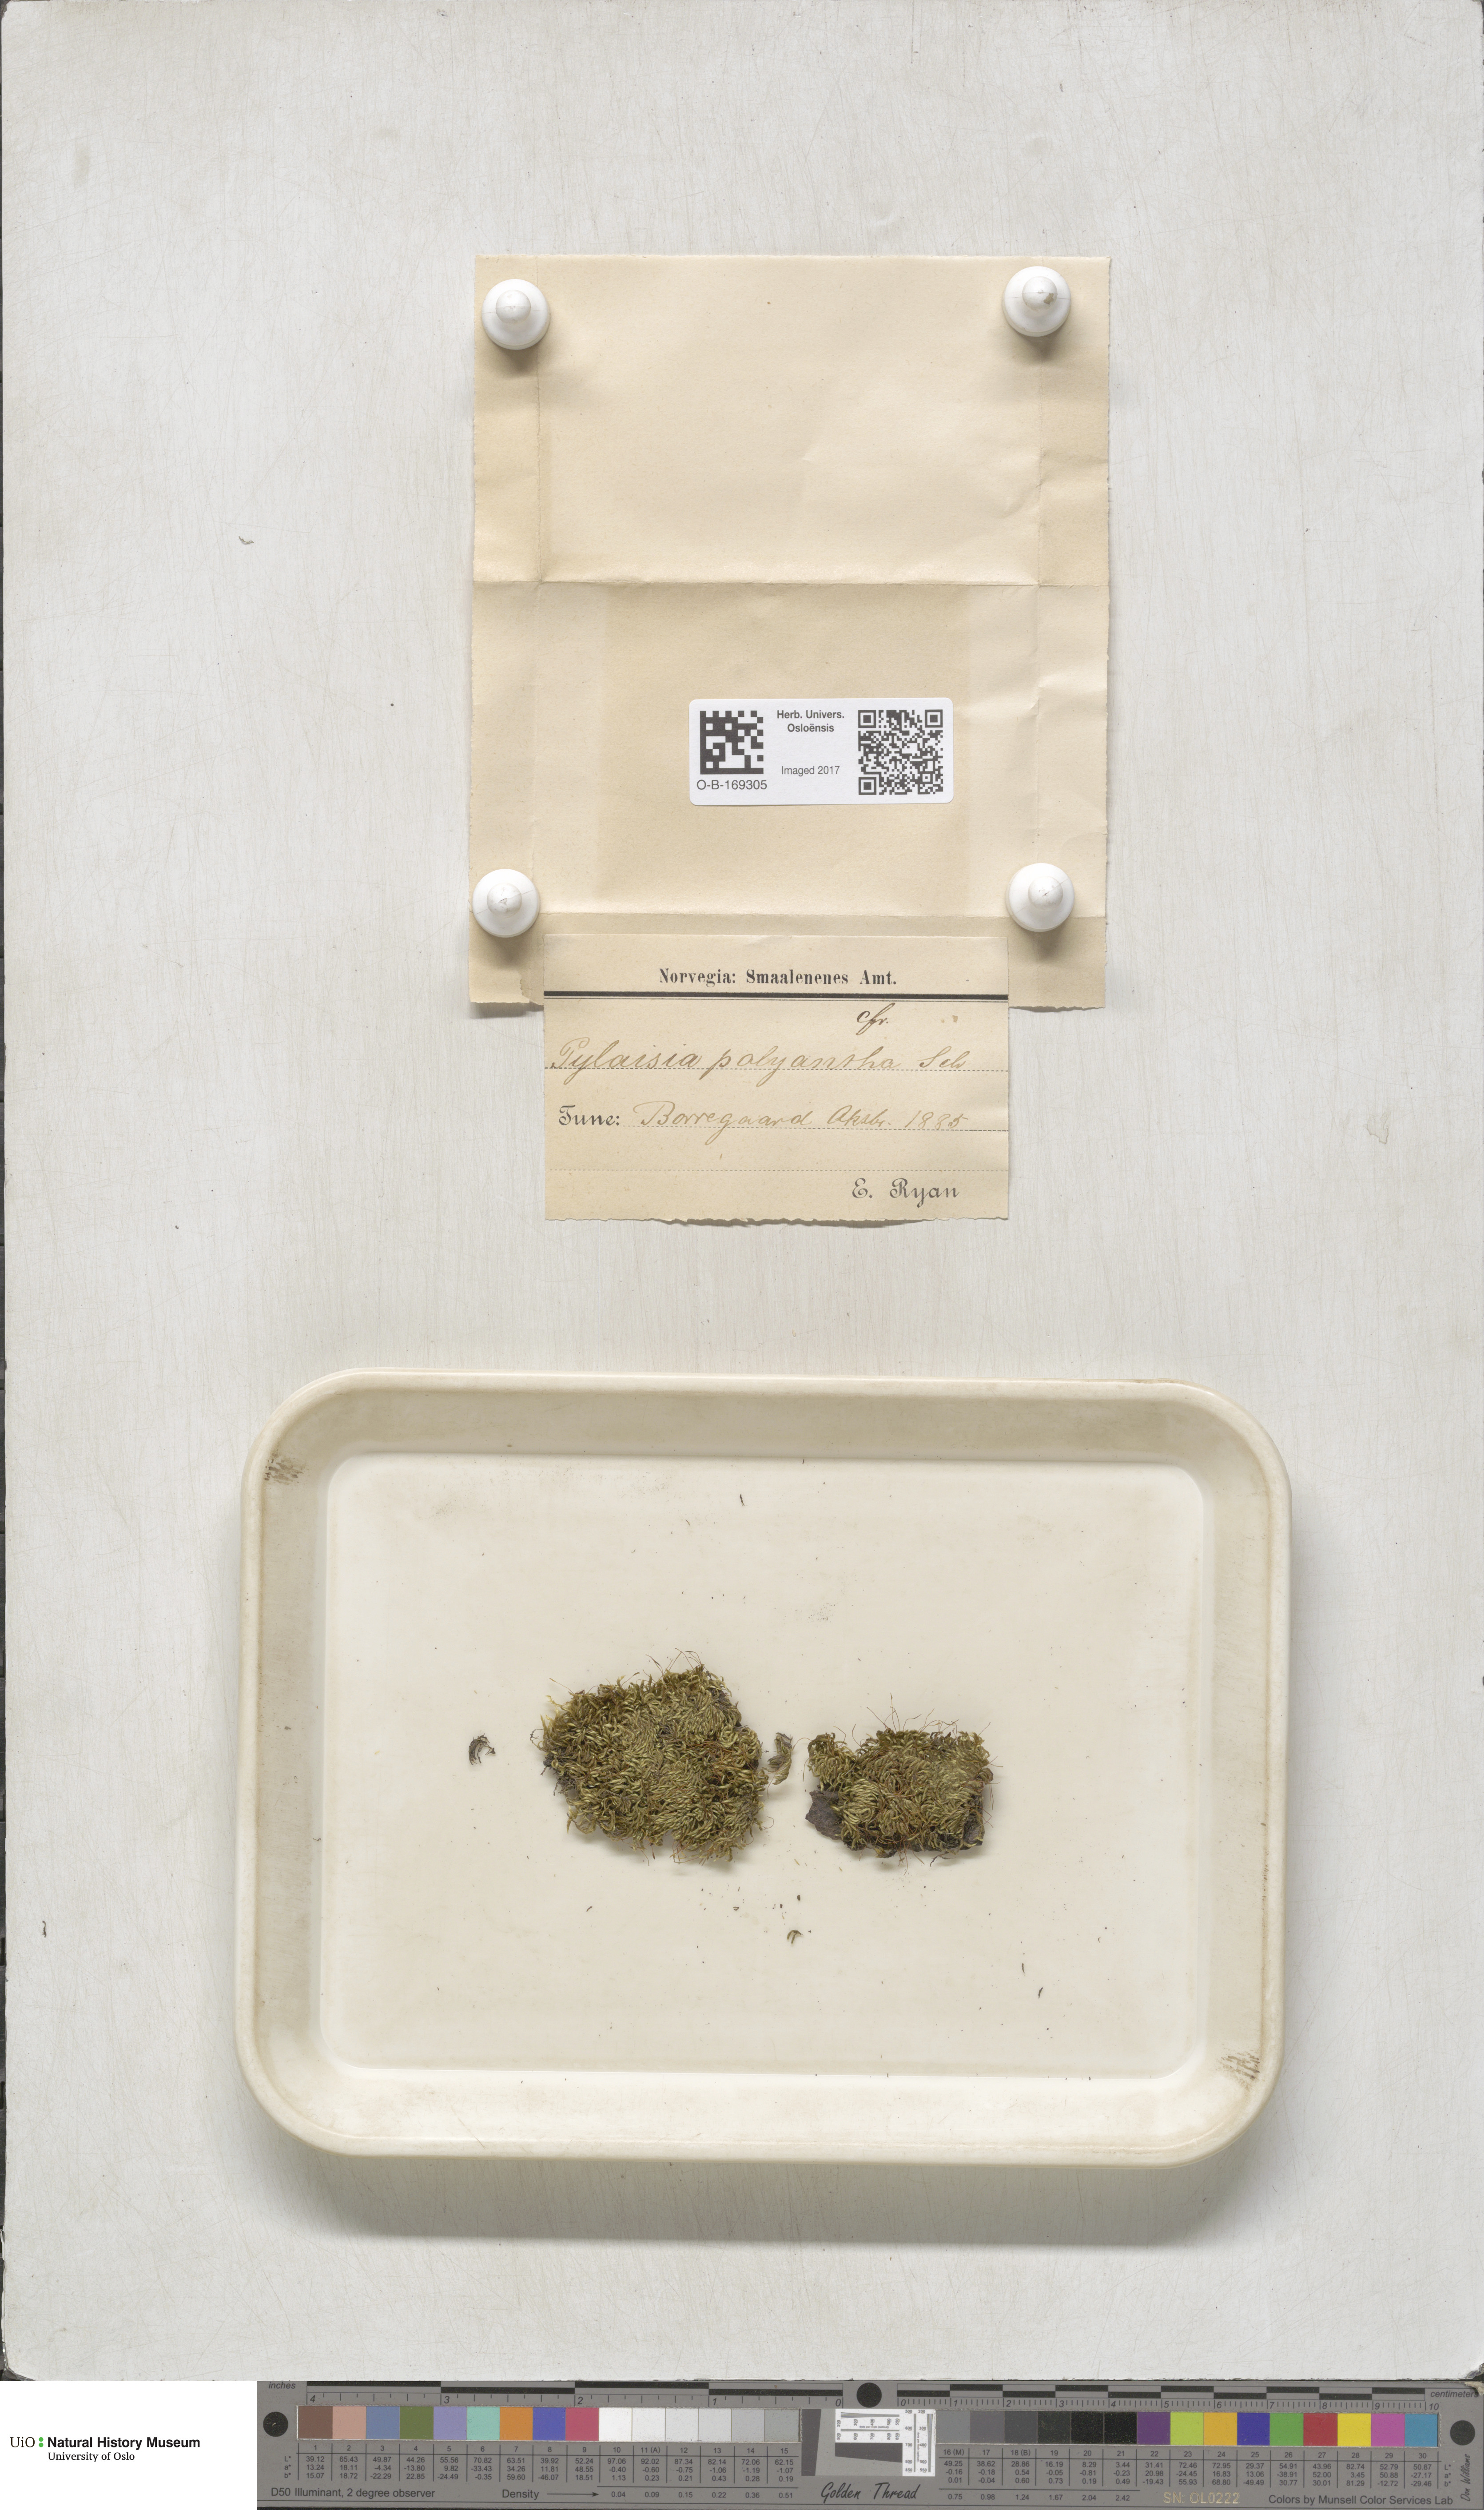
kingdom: Plantae
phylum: Bryophyta
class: Bryopsida
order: Hypnales
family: Pylaisiaceae
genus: Pylaisia
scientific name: Pylaisia polyantha
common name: Many-flowered leskea
